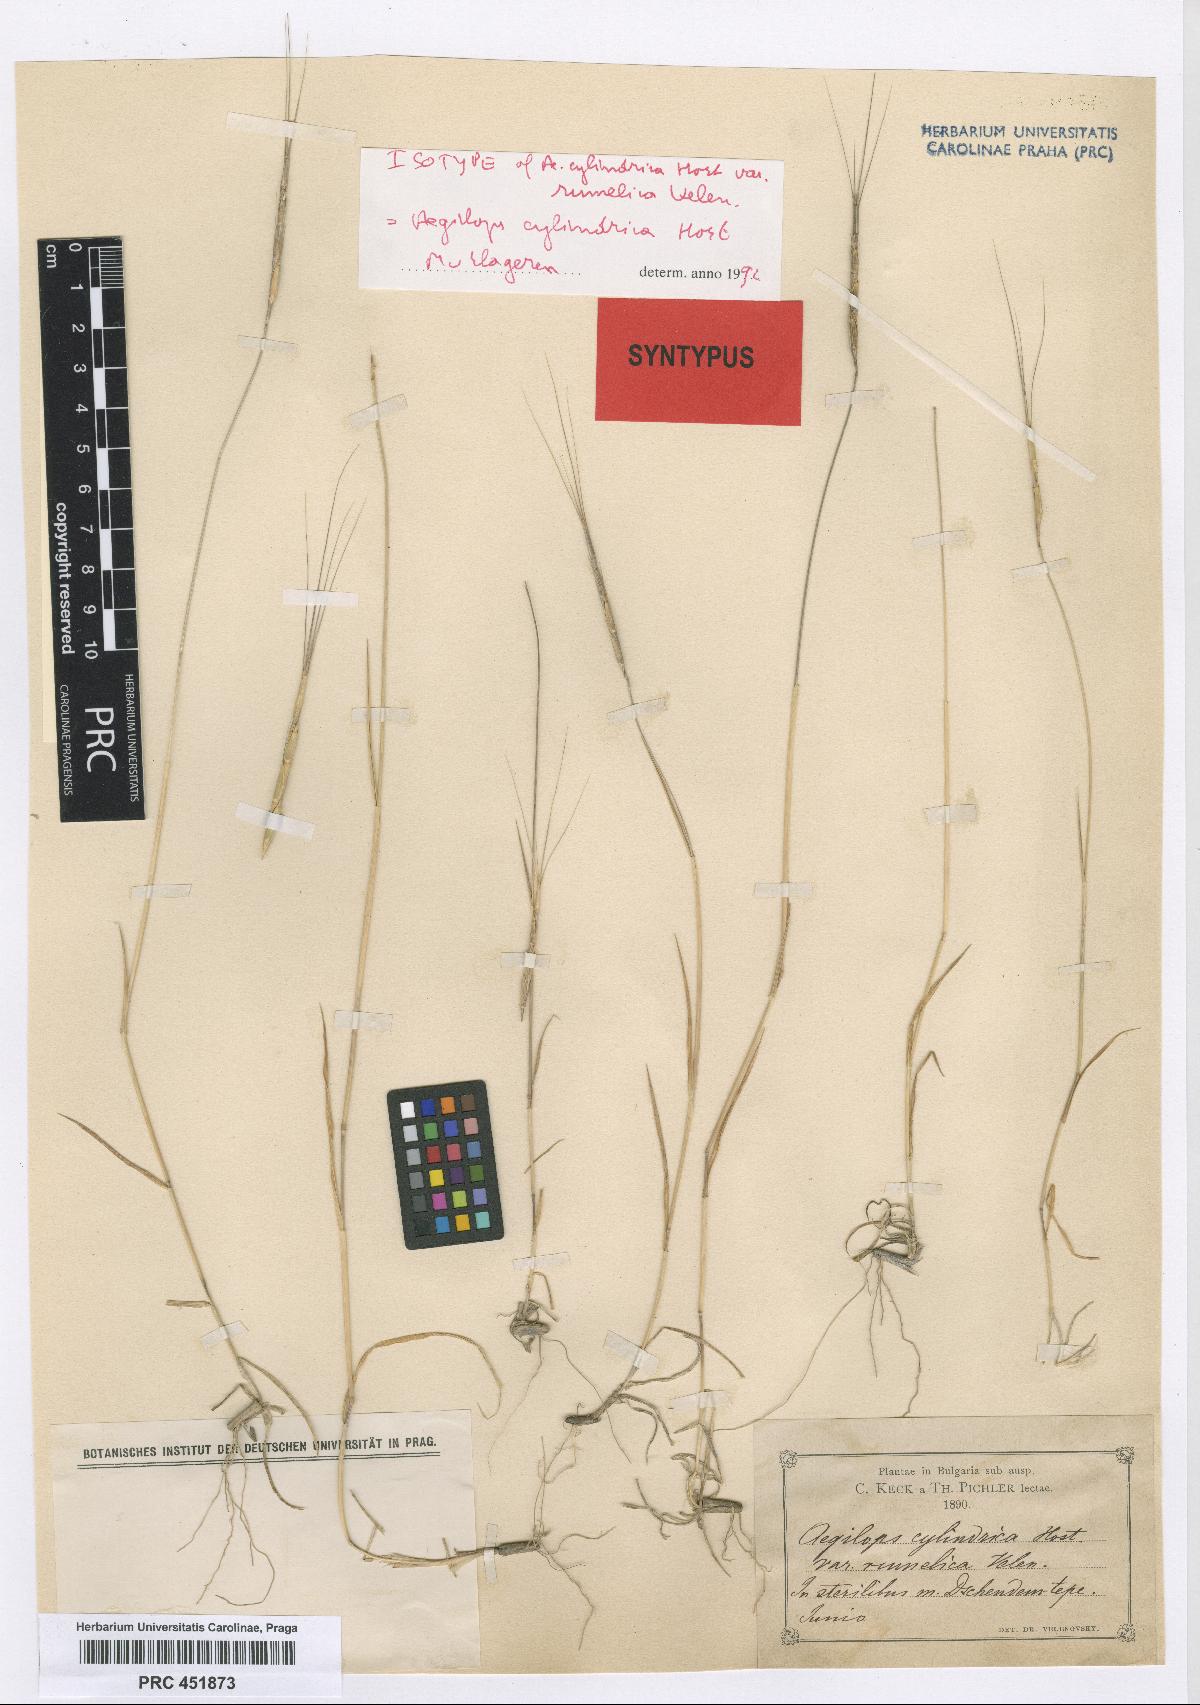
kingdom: Plantae
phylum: Tracheophyta
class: Liliopsida
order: Poales
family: Poaceae
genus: Aegilops
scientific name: Aegilops cylindrica
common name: Jointed goatgrass
